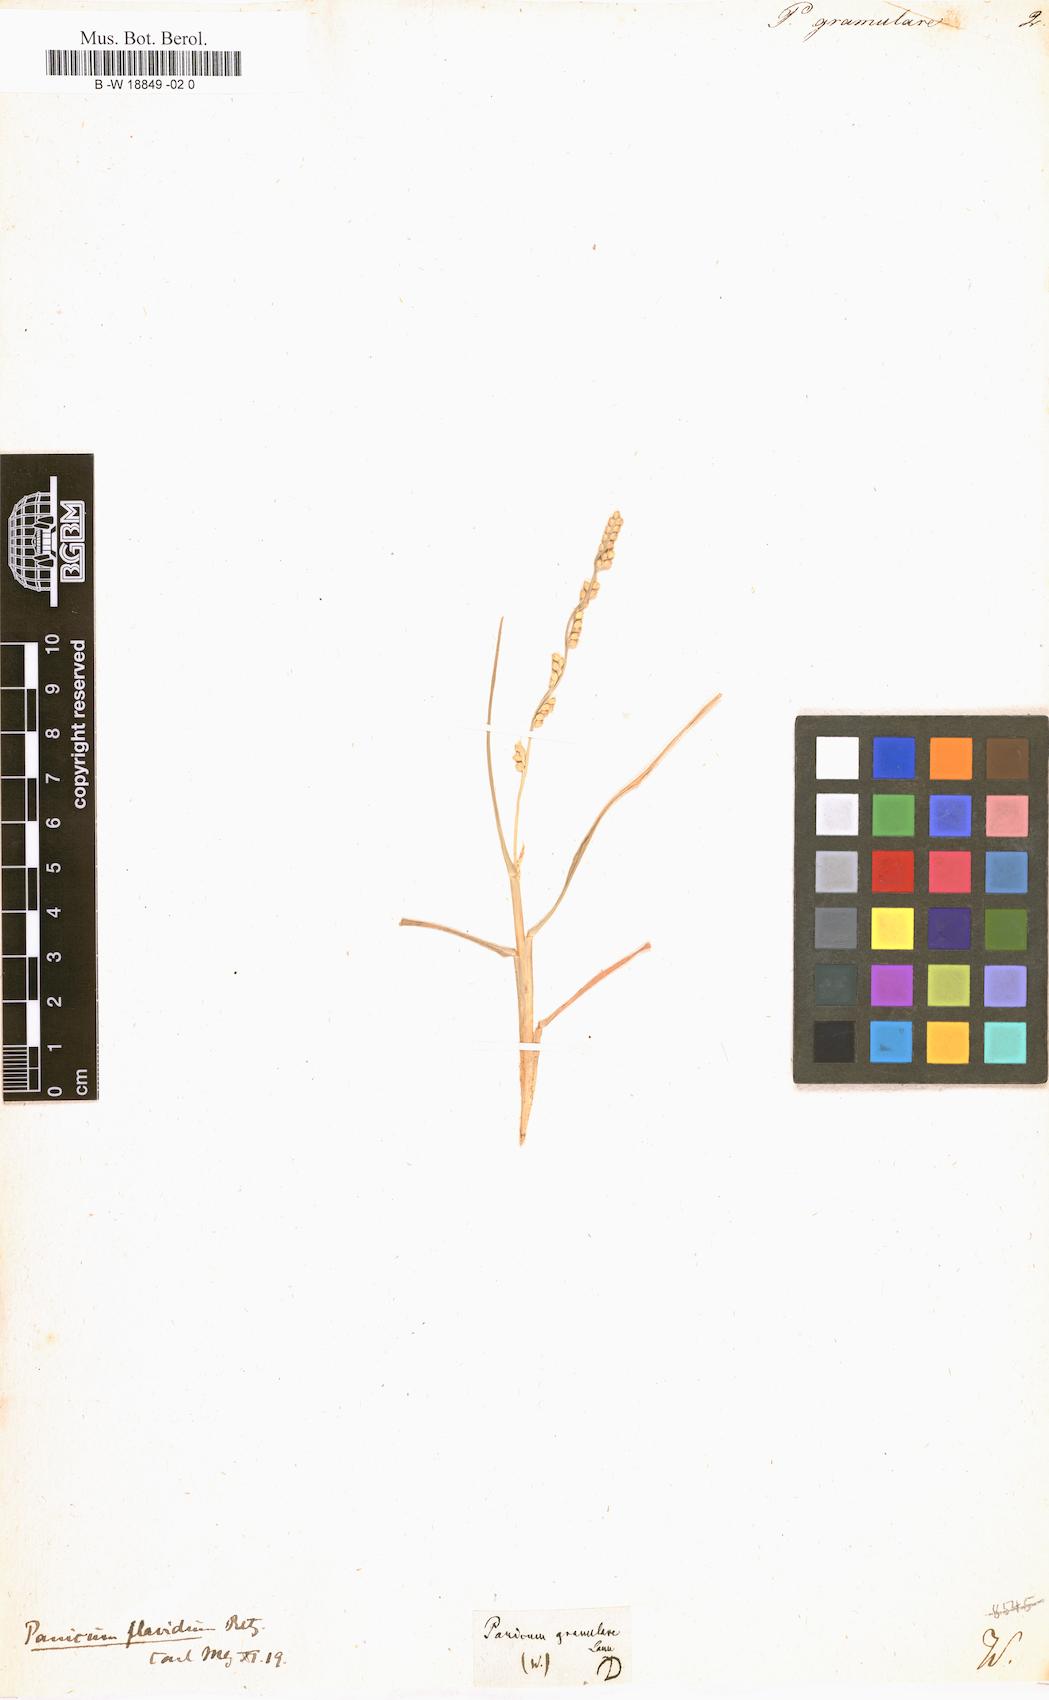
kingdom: Plantae
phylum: Tracheophyta
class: Liliopsida
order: Poales
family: Poaceae
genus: Setaria
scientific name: Setaria flavida
